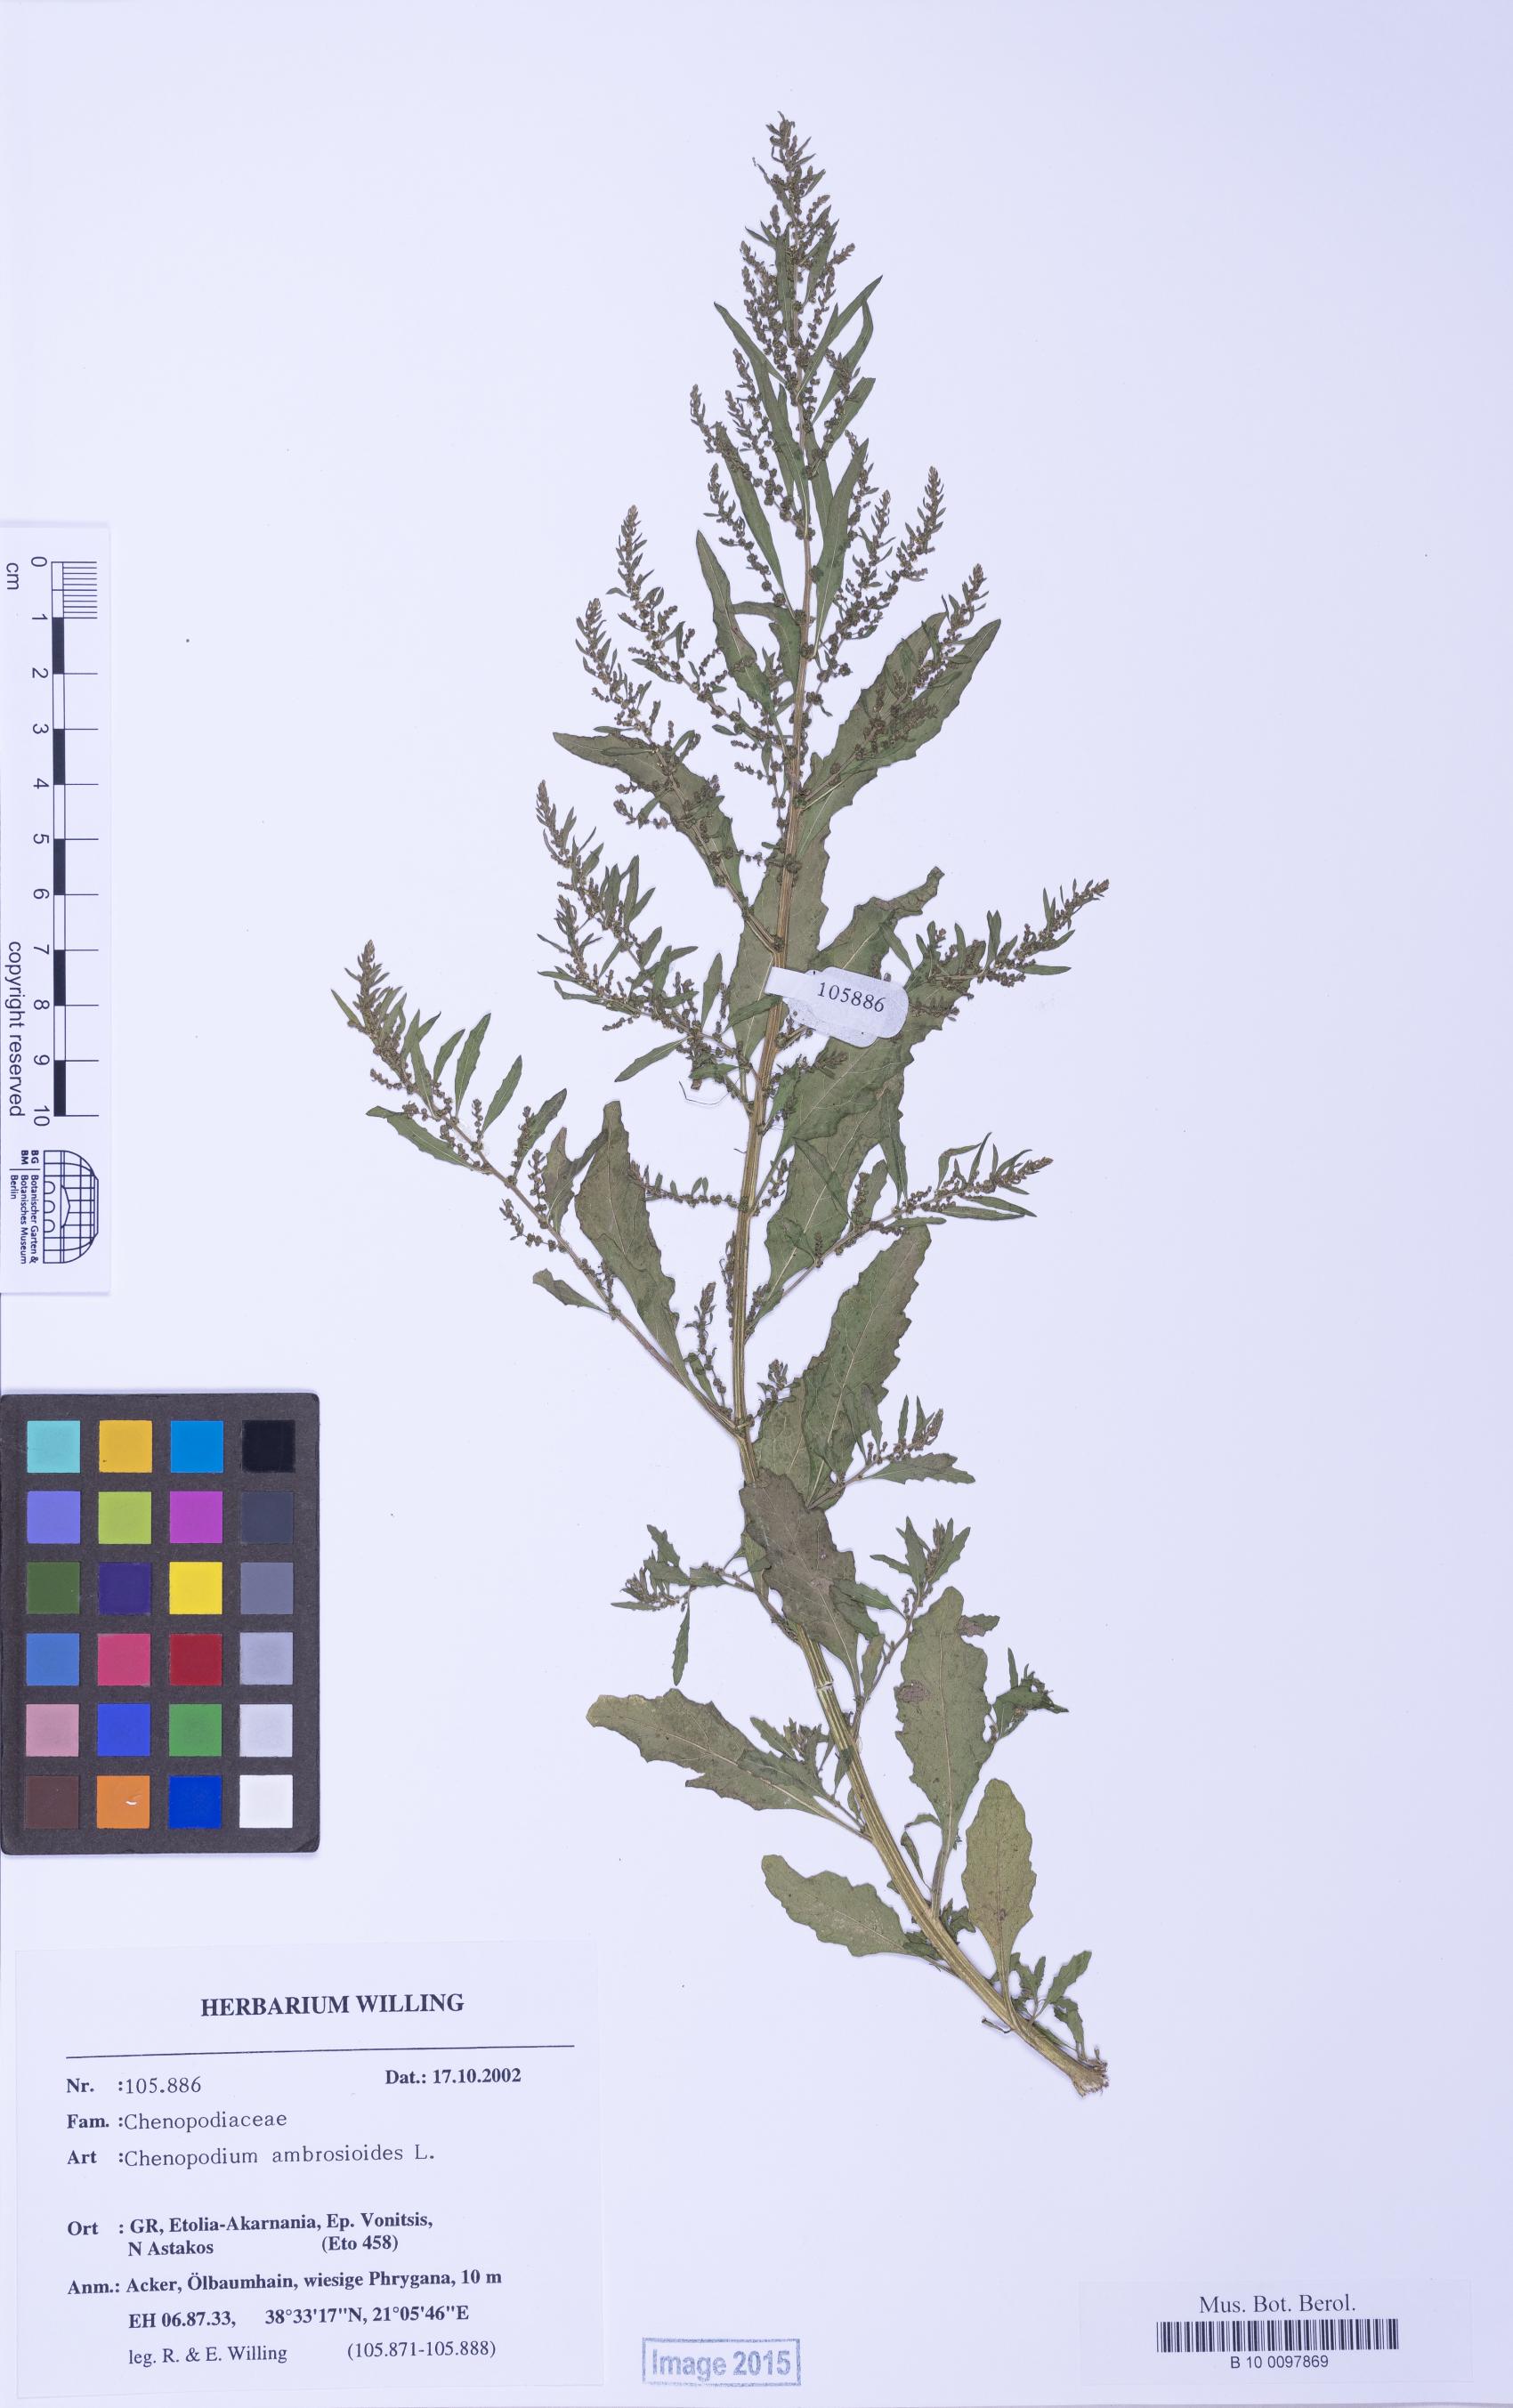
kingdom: Plantae
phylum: Tracheophyta
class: Magnoliopsida
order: Caryophyllales
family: Amaranthaceae
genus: Dysphania
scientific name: Dysphania ambrosioides
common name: Wormseed
